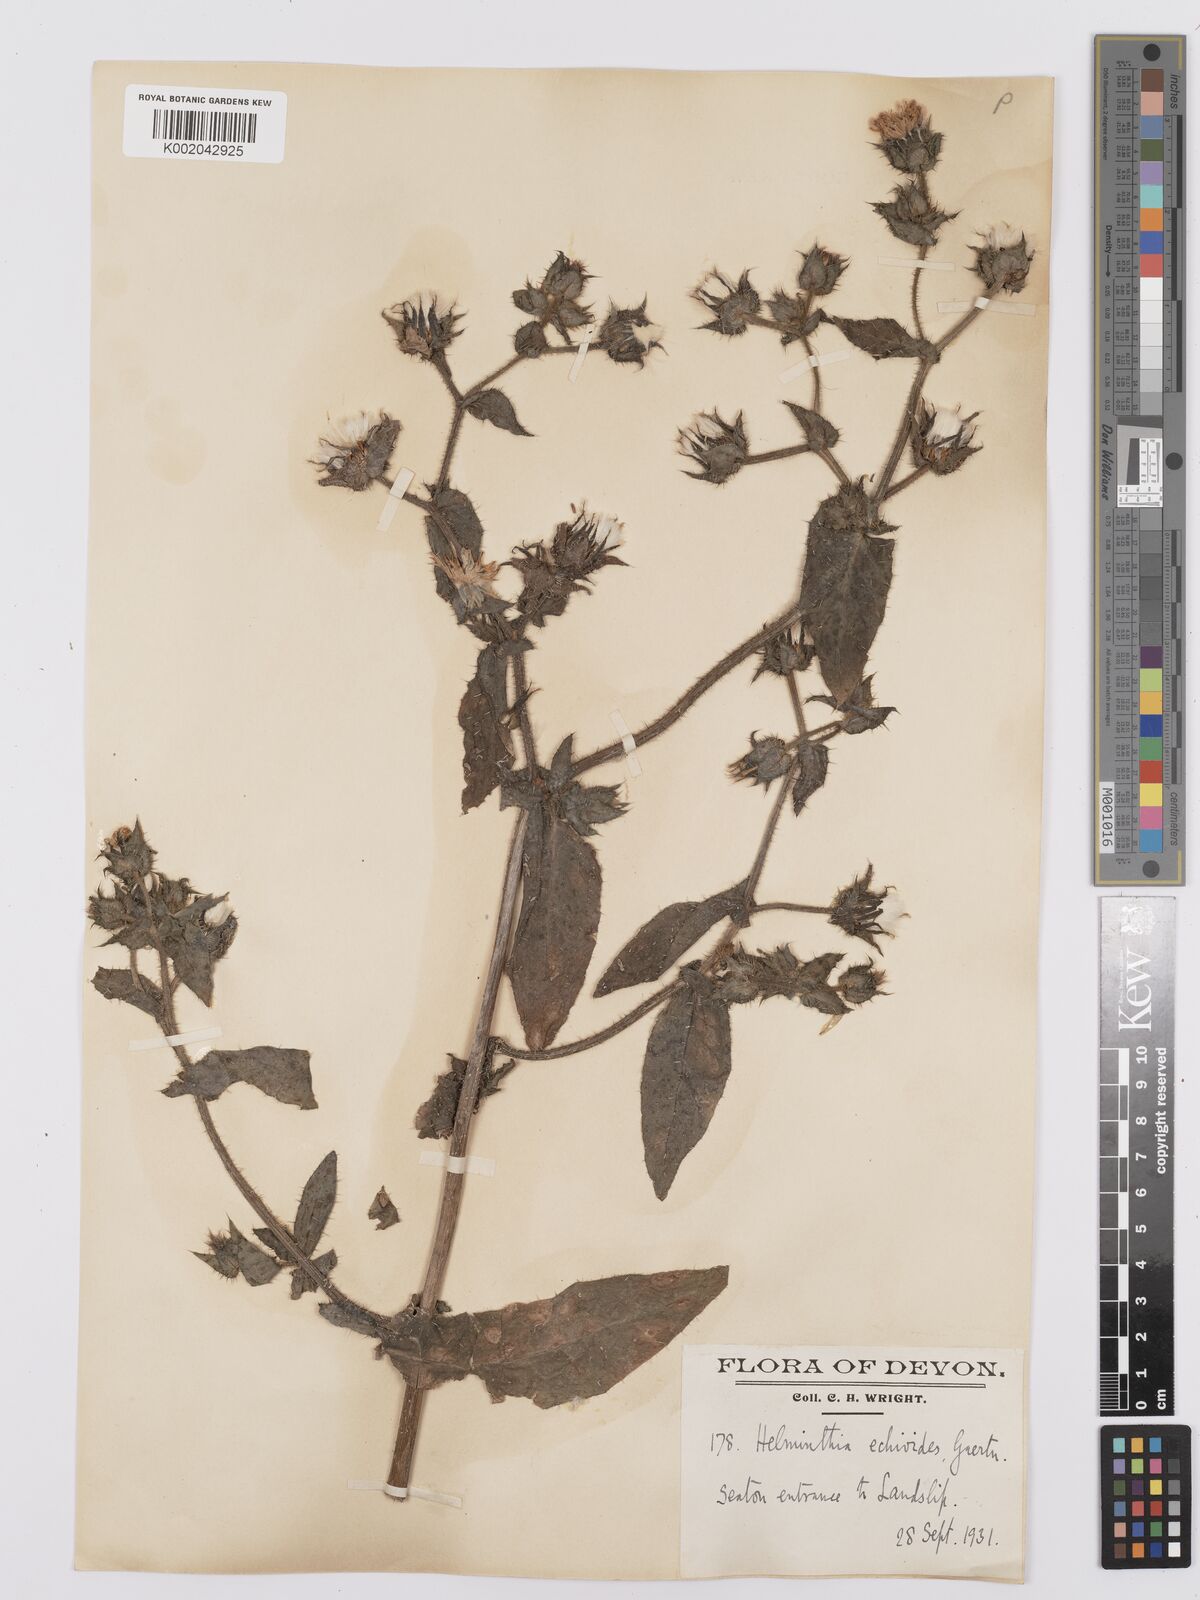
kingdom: Plantae
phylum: Tracheophyta
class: Magnoliopsida
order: Asterales
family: Asteraceae
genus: Helminthotheca
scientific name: Helminthotheca echioides
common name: Ox-tongue
